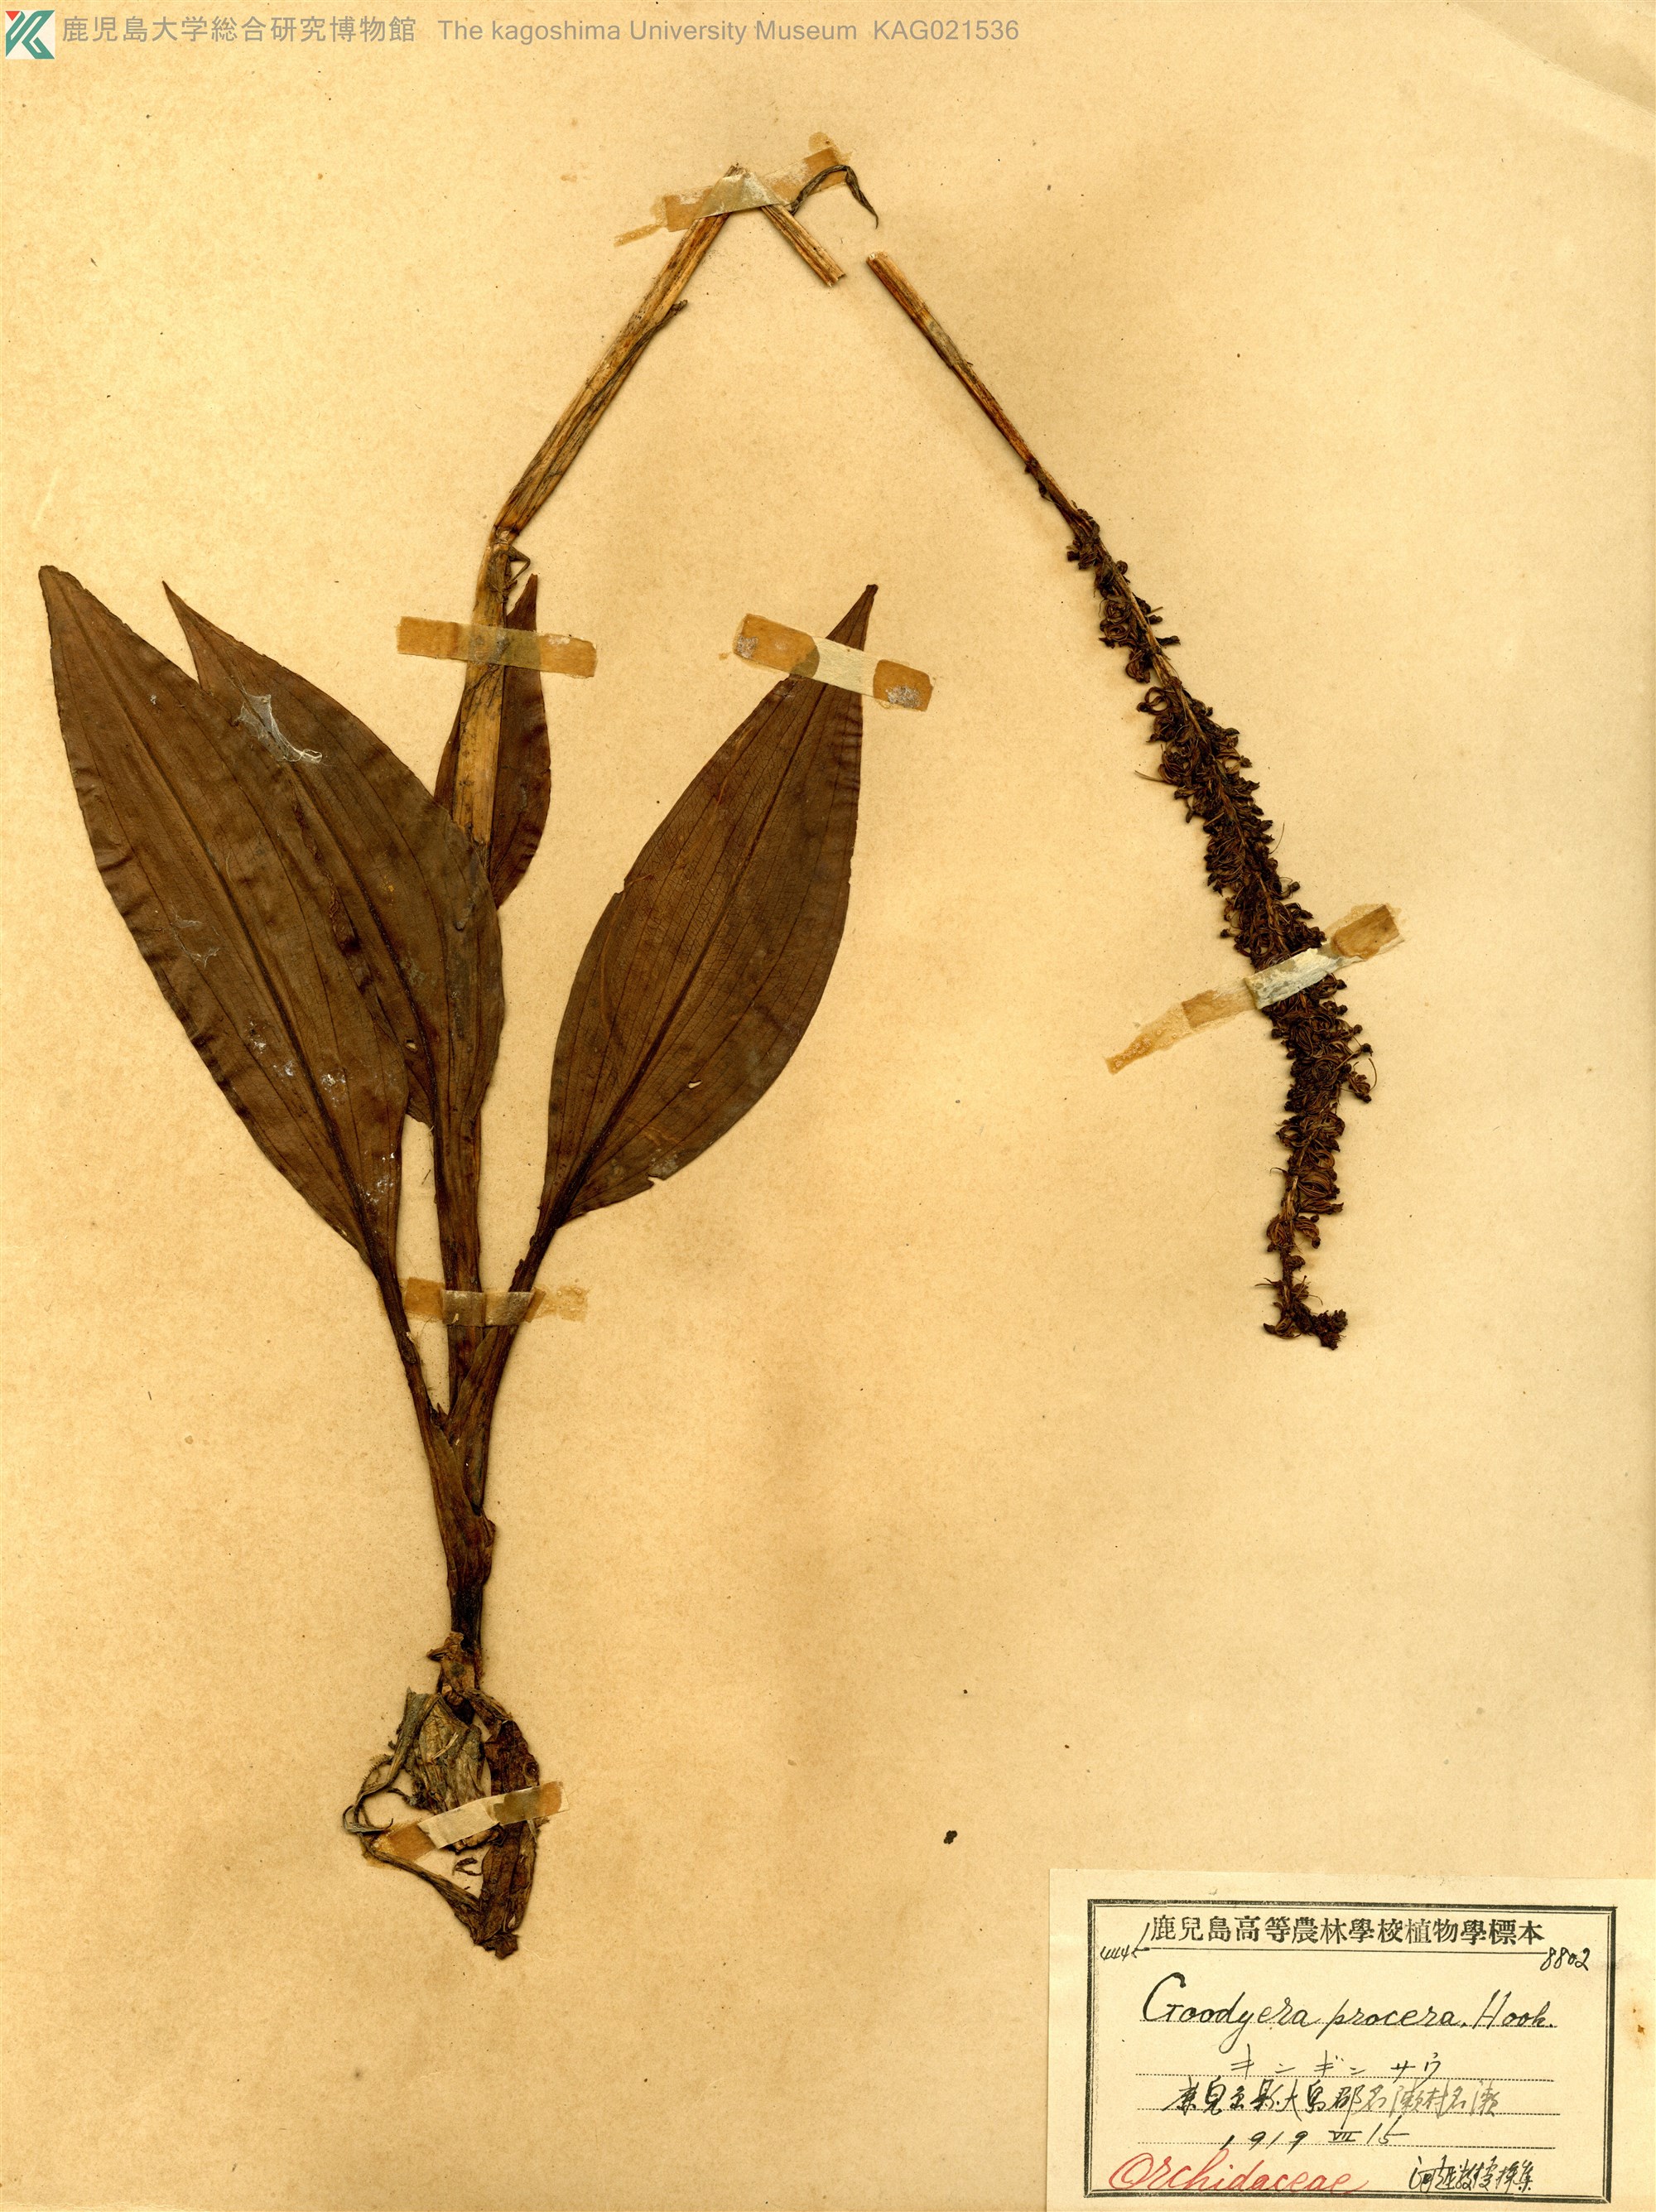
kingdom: Plantae
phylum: Tracheophyta
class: Liliopsida
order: Asparagales
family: Orchidaceae
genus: Goodyera
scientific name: Goodyera procera
